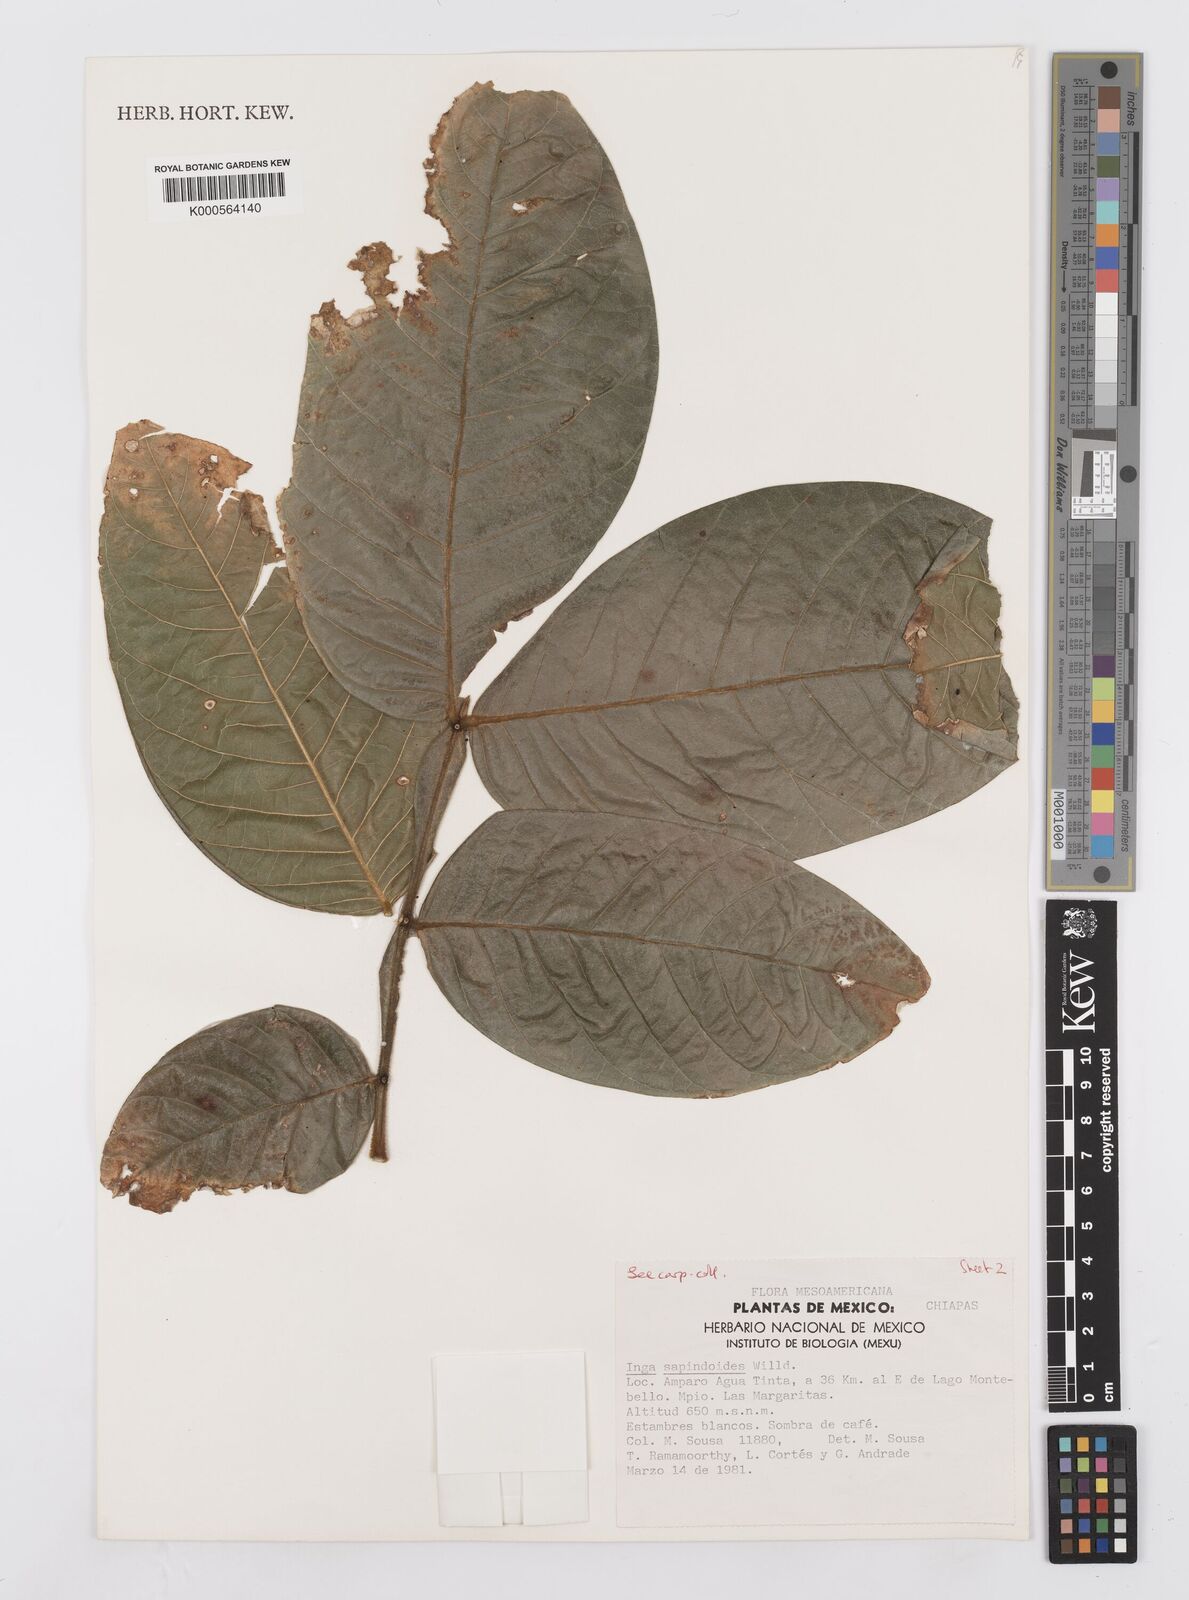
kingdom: Plantae
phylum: Tracheophyta
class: Magnoliopsida
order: Fabales
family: Fabaceae
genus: Inga
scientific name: Inga sapindoides
